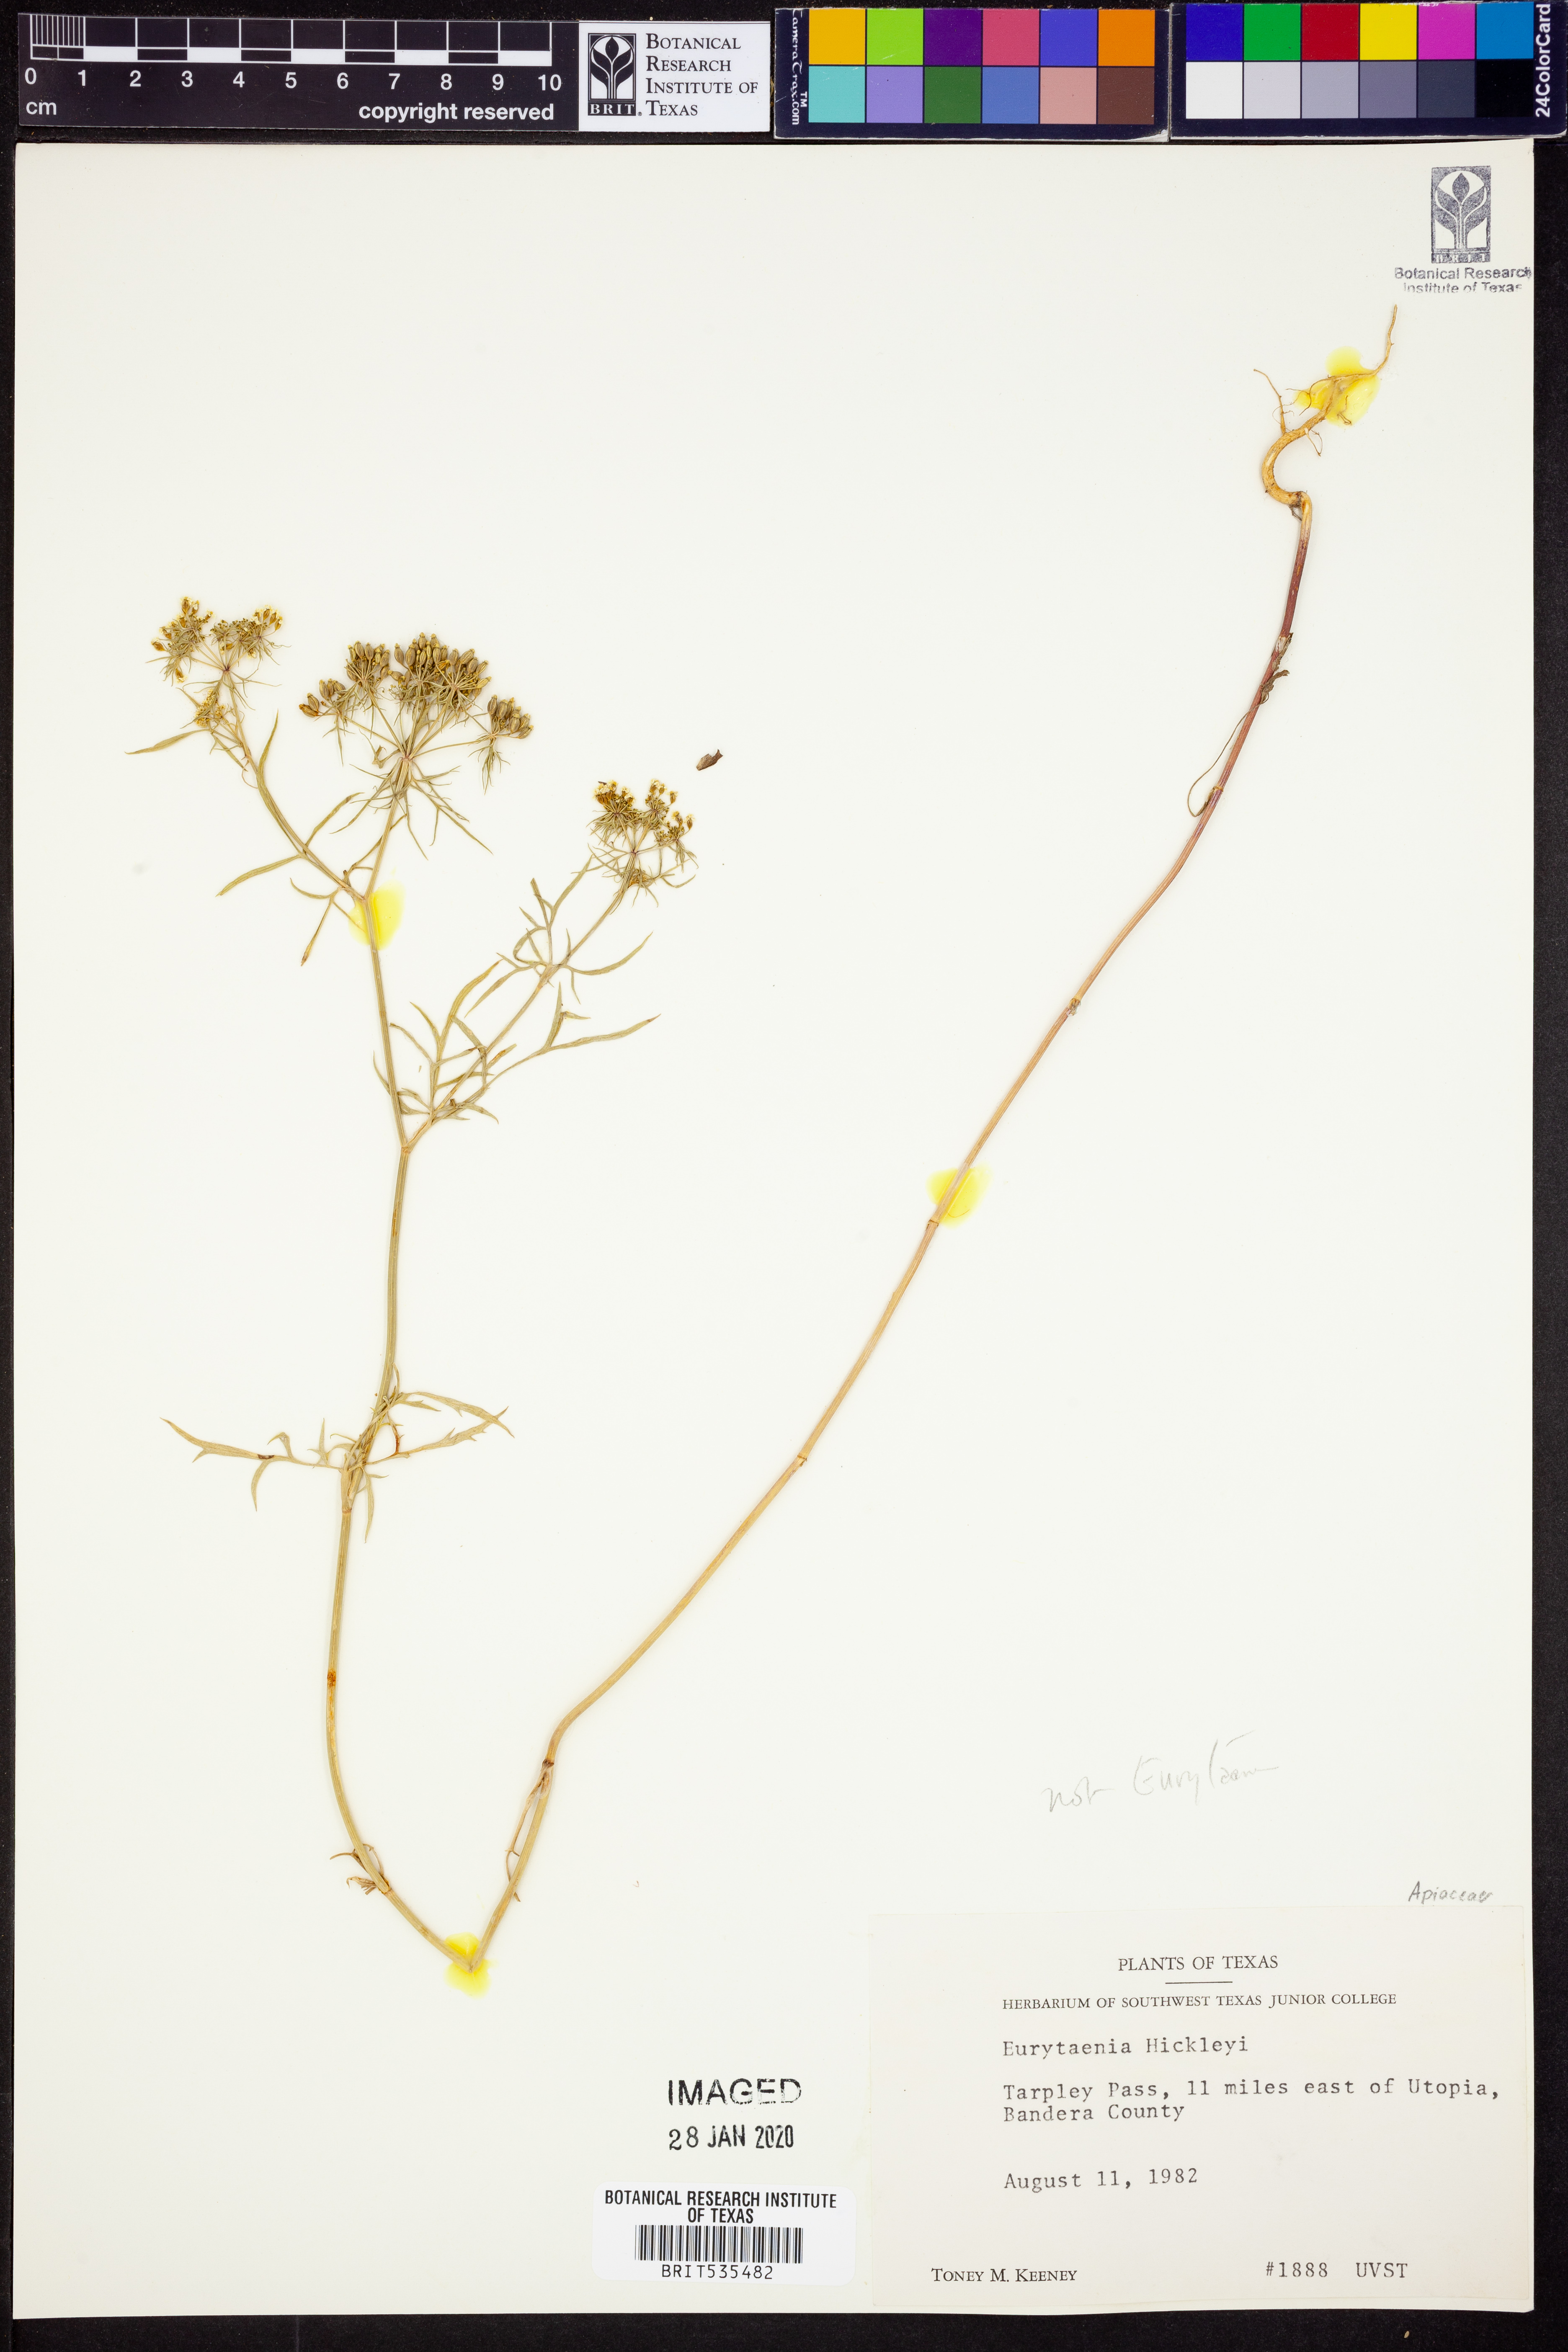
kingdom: Plantae
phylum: Tracheophyta
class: Magnoliopsida
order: Apiales
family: Apiaceae
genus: Eurytaenia
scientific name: Eurytaenia hinckleyi
